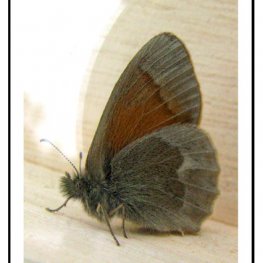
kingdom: Animalia
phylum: Arthropoda
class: Insecta
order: Lepidoptera
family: Nymphalidae
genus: Coenonympha
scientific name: Coenonympha tullia
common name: Large Heath
